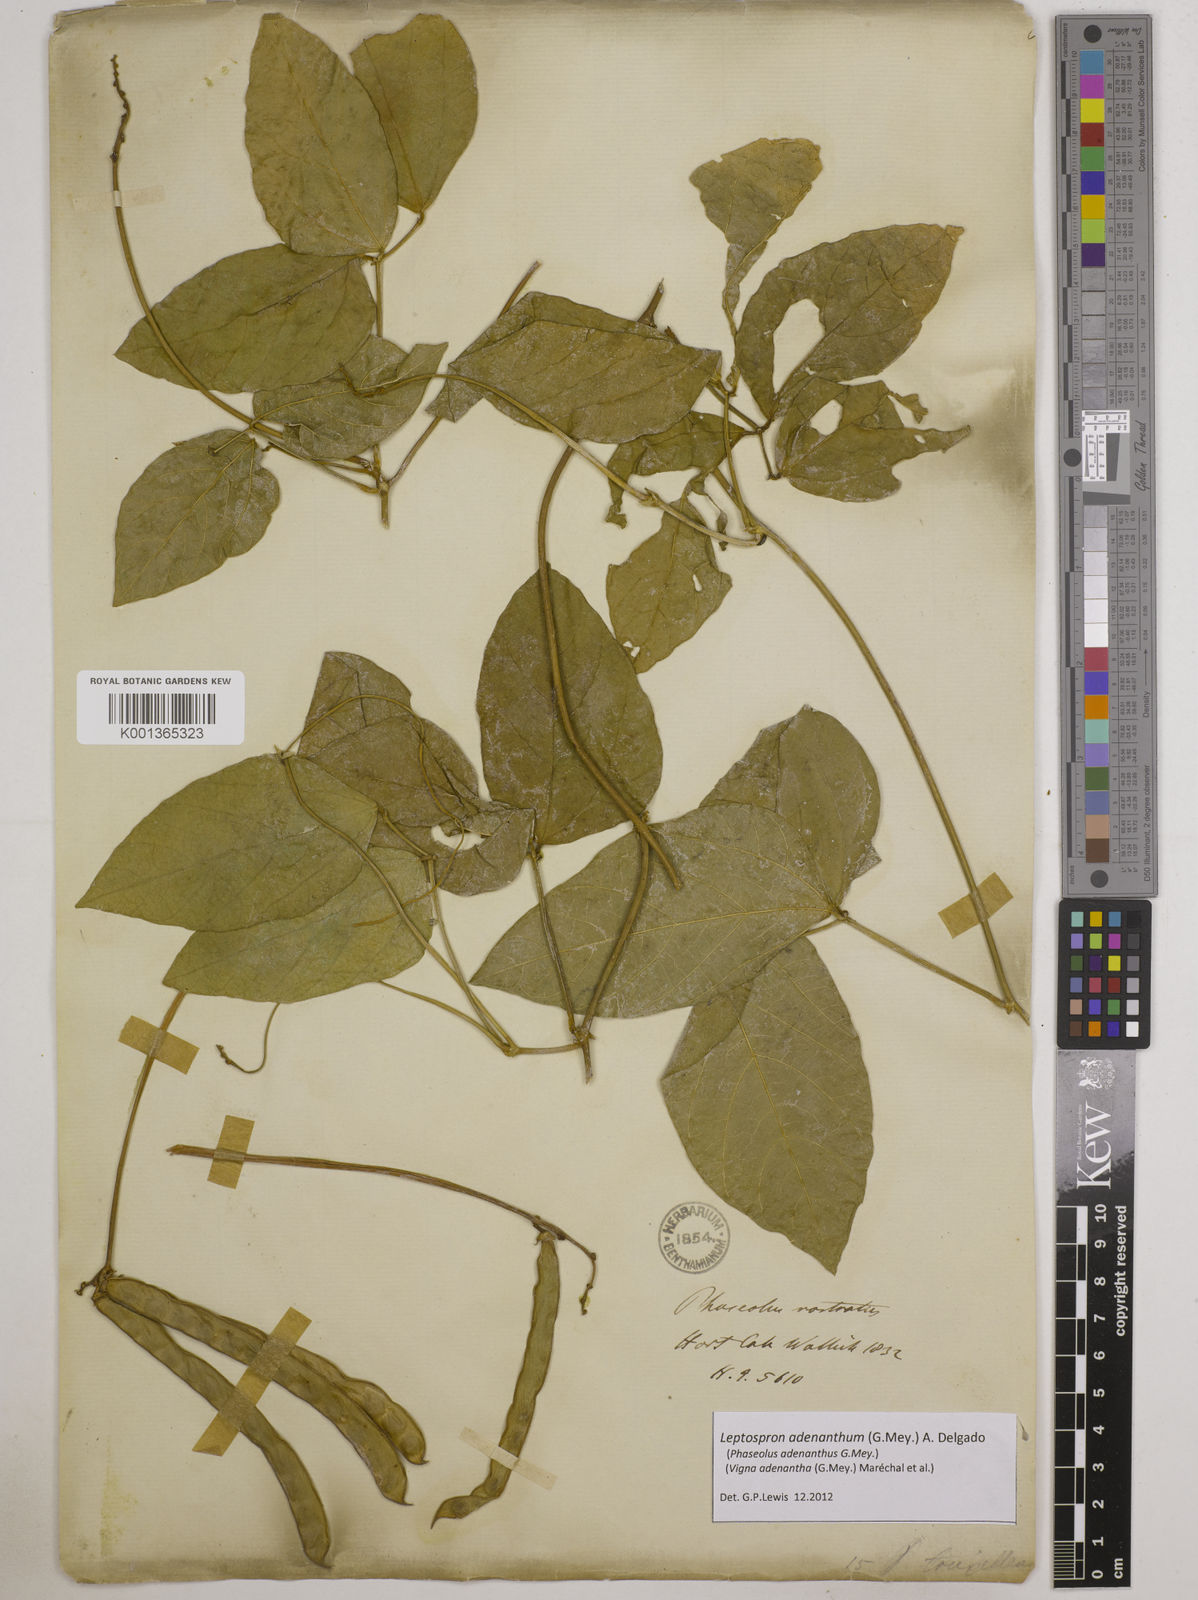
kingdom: Plantae
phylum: Tracheophyta
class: Magnoliopsida
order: Fabales
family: Fabaceae
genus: Leptospron
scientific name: Leptospron adenanthum
